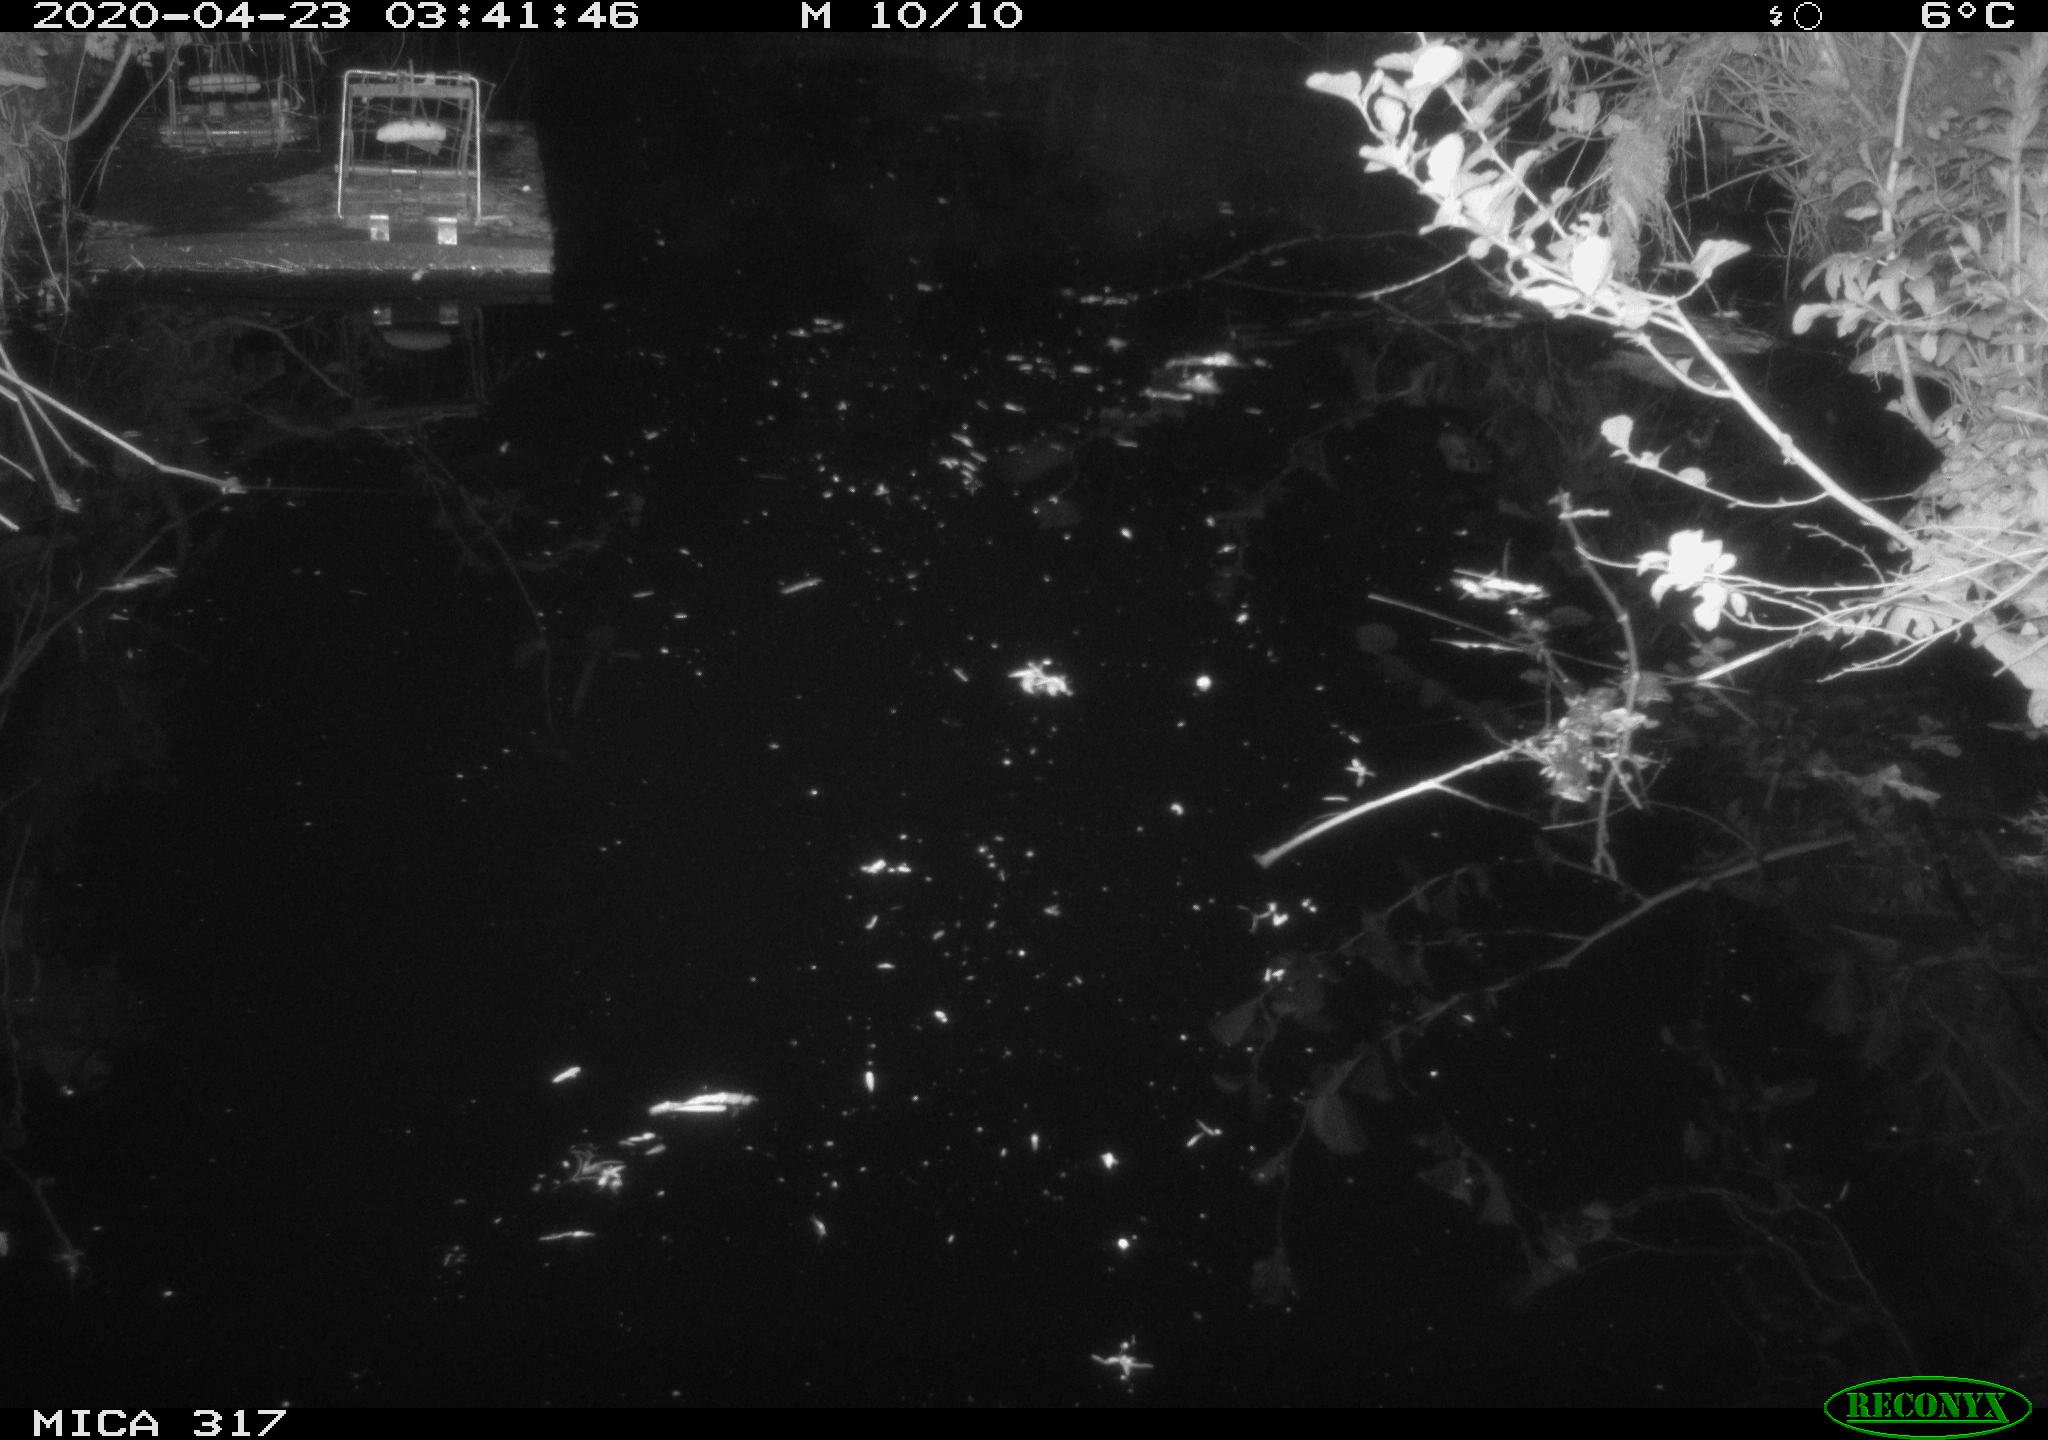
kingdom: Animalia
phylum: Chordata
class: Aves
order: Anseriformes
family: Anatidae
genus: Anas
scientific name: Anas platyrhynchos
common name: Mallard
